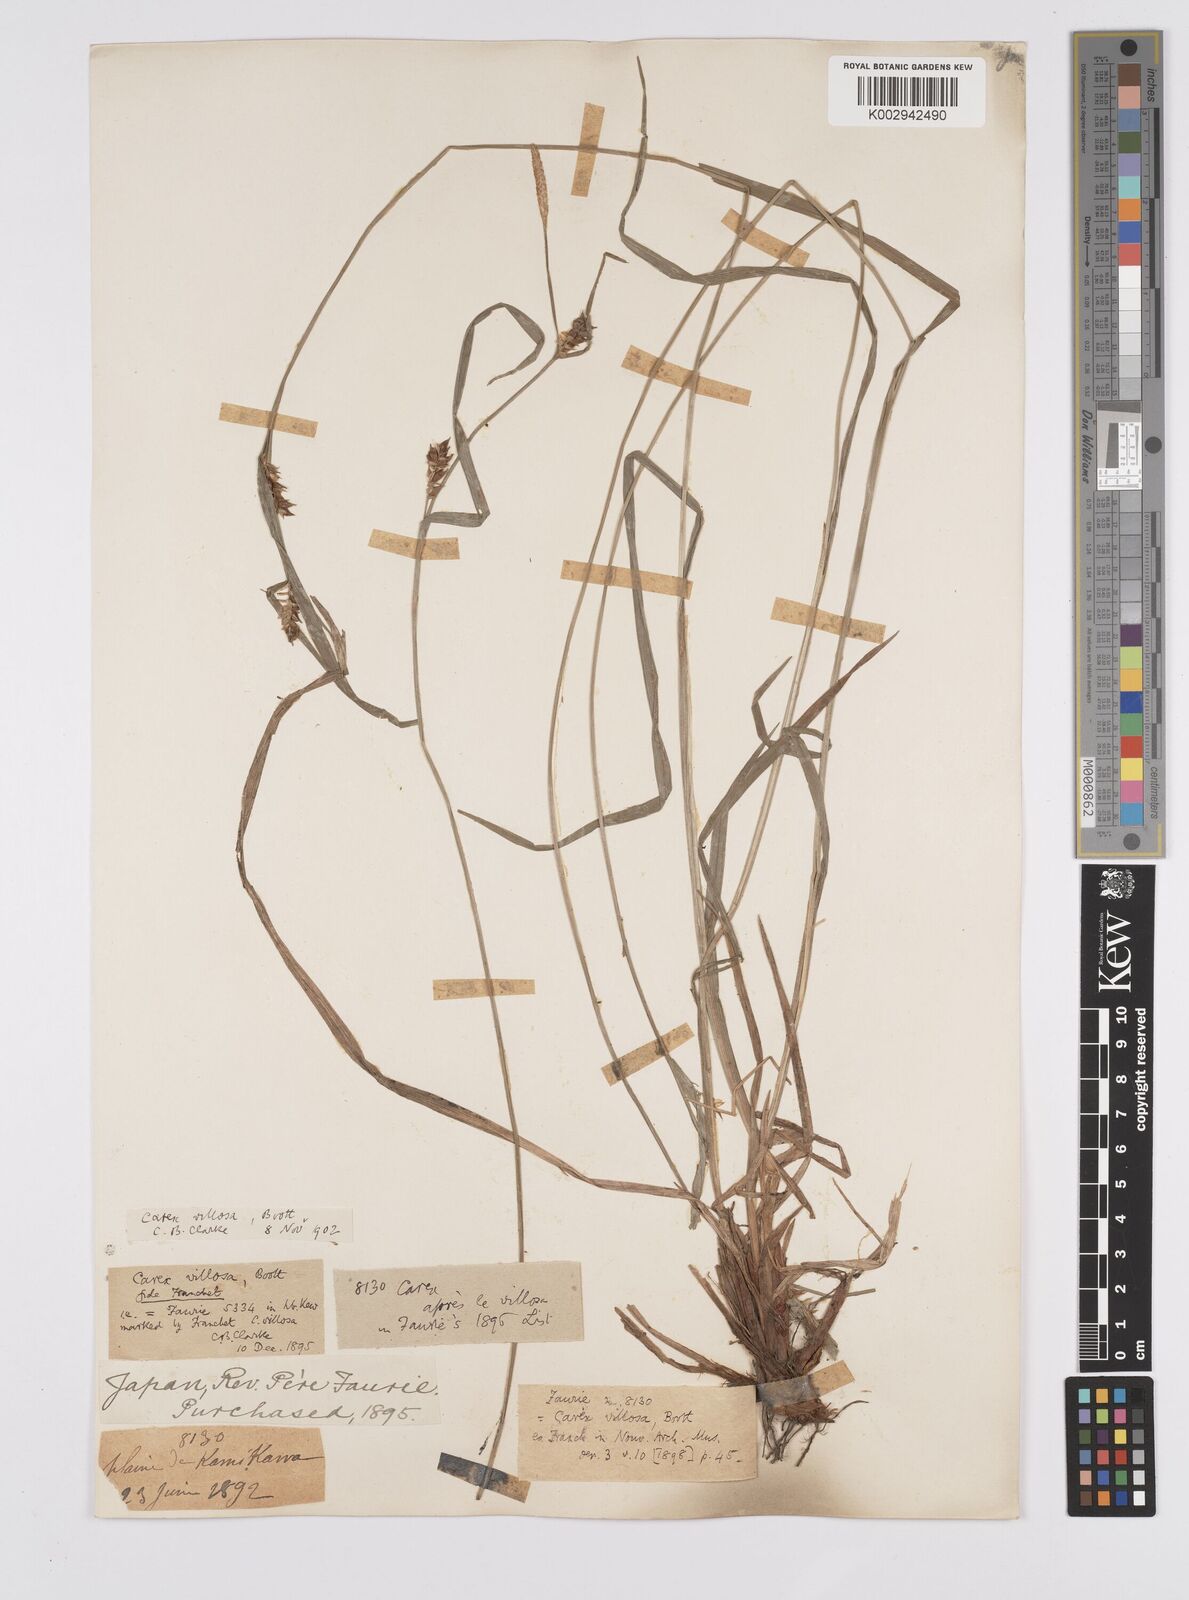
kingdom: Plantae
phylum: Tracheophyta
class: Liliopsida
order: Poales
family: Cyperaceae
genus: Carex
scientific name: Carex latisquamea
